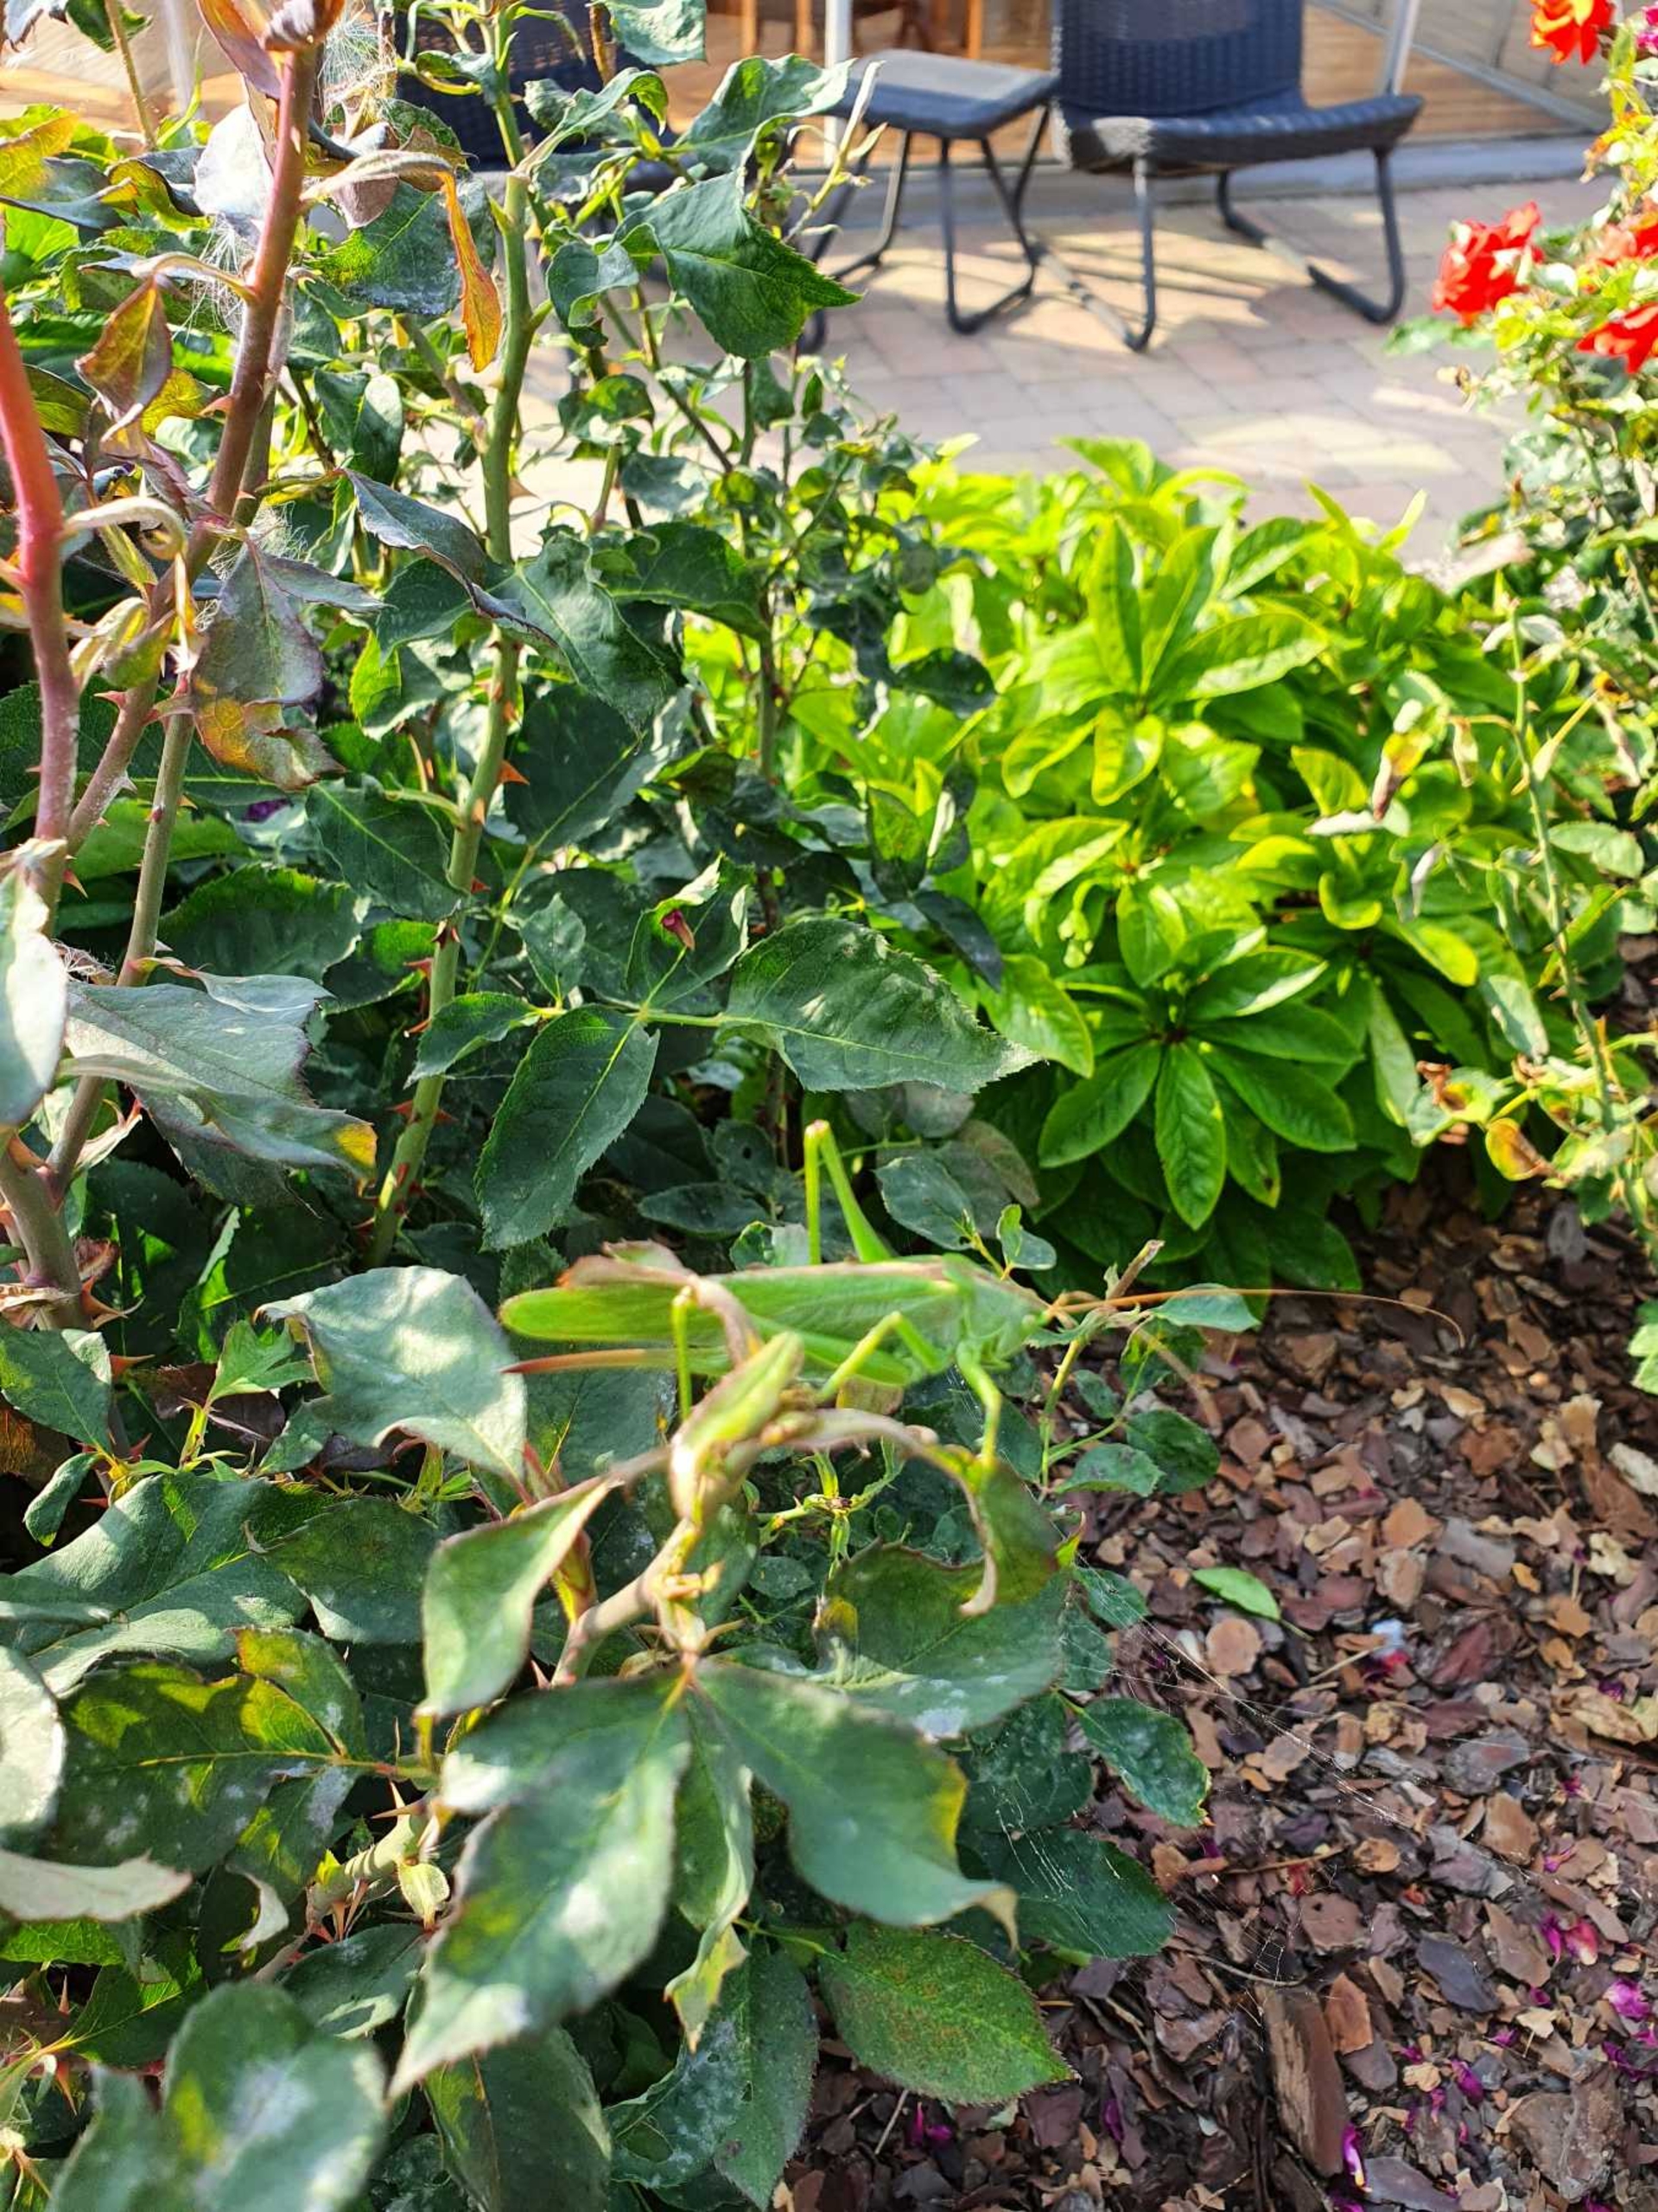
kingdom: Animalia
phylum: Arthropoda
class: Insecta
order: Orthoptera
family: Tettigoniidae
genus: Tettigonia
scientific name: Tettigonia viridissima
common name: Stor grøn løvgræshoppe
